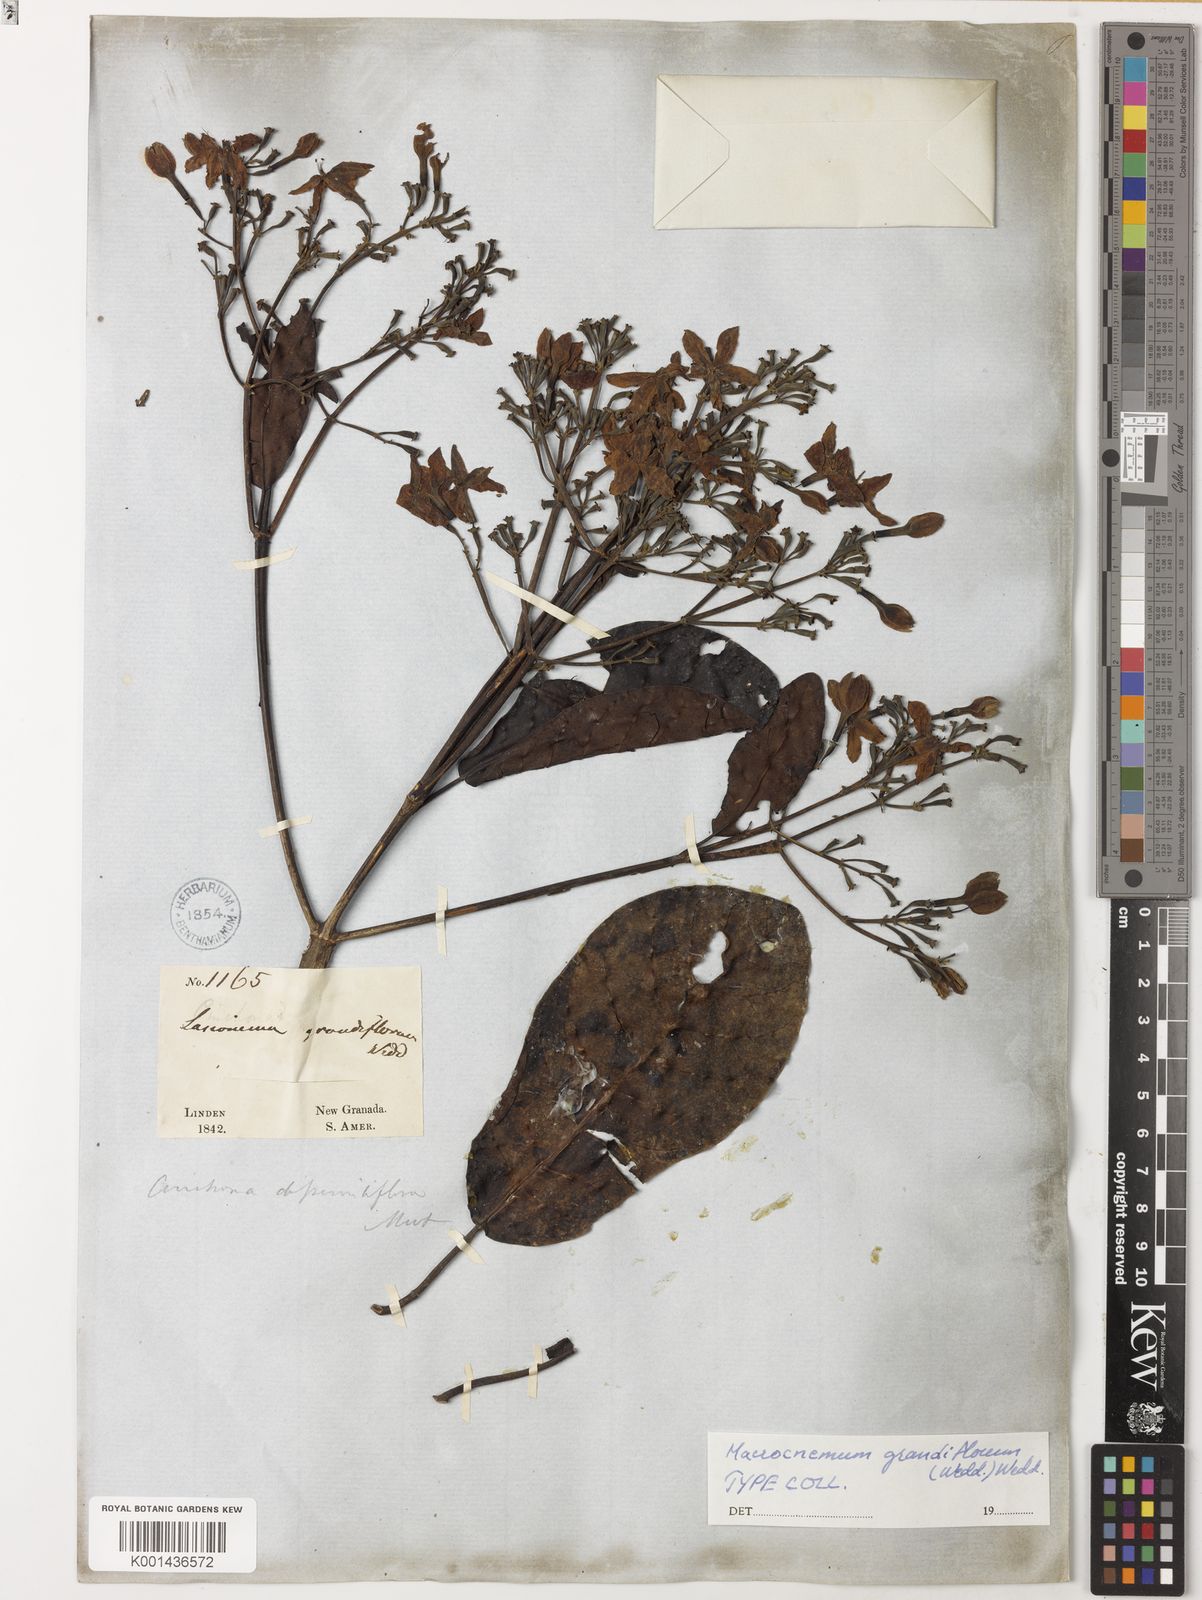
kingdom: Plantae
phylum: Tracheophyta
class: Magnoliopsida
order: Gentianales
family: Rubiaceae
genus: Macrocnemum
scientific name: Macrocnemum grandiflorum
